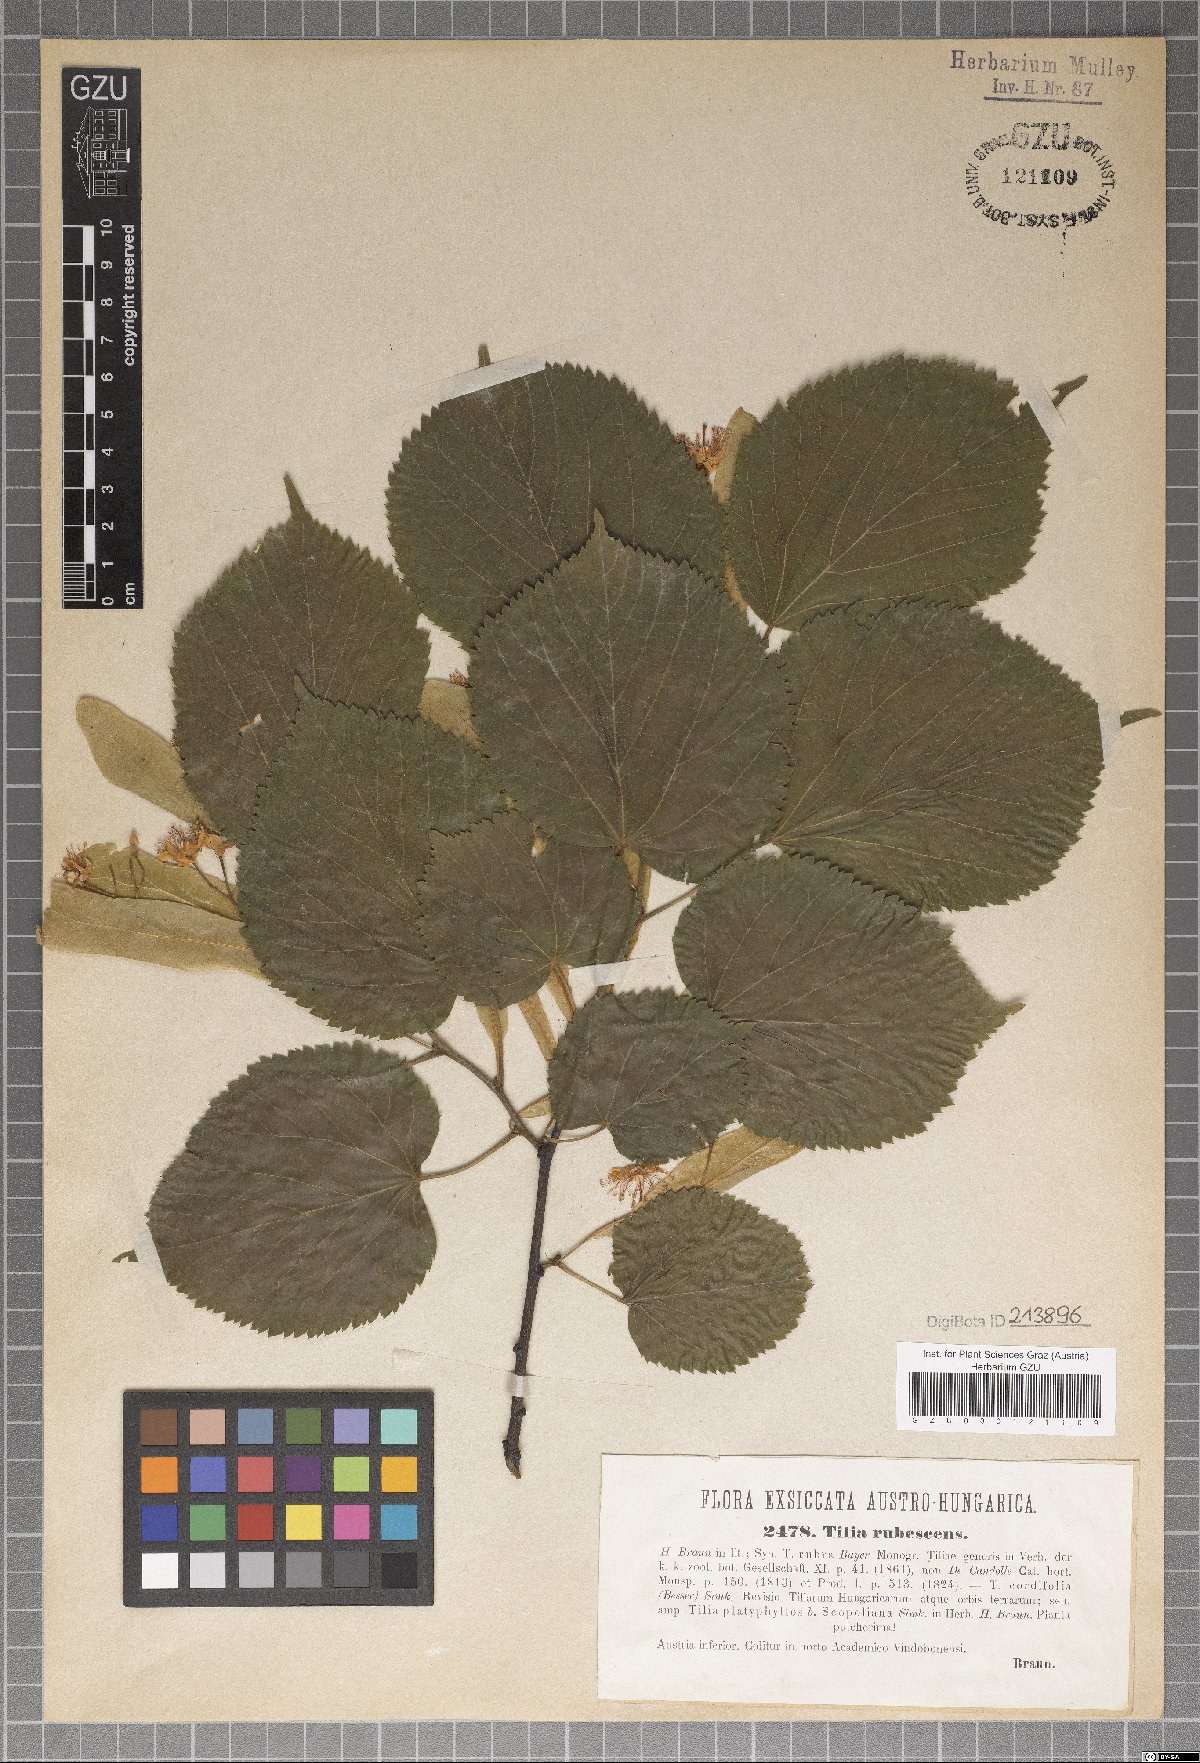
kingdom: Plantae
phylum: Tracheophyta
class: Magnoliopsida
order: Malvales
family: Malvaceae
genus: Tilia
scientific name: Tilia rubescens
